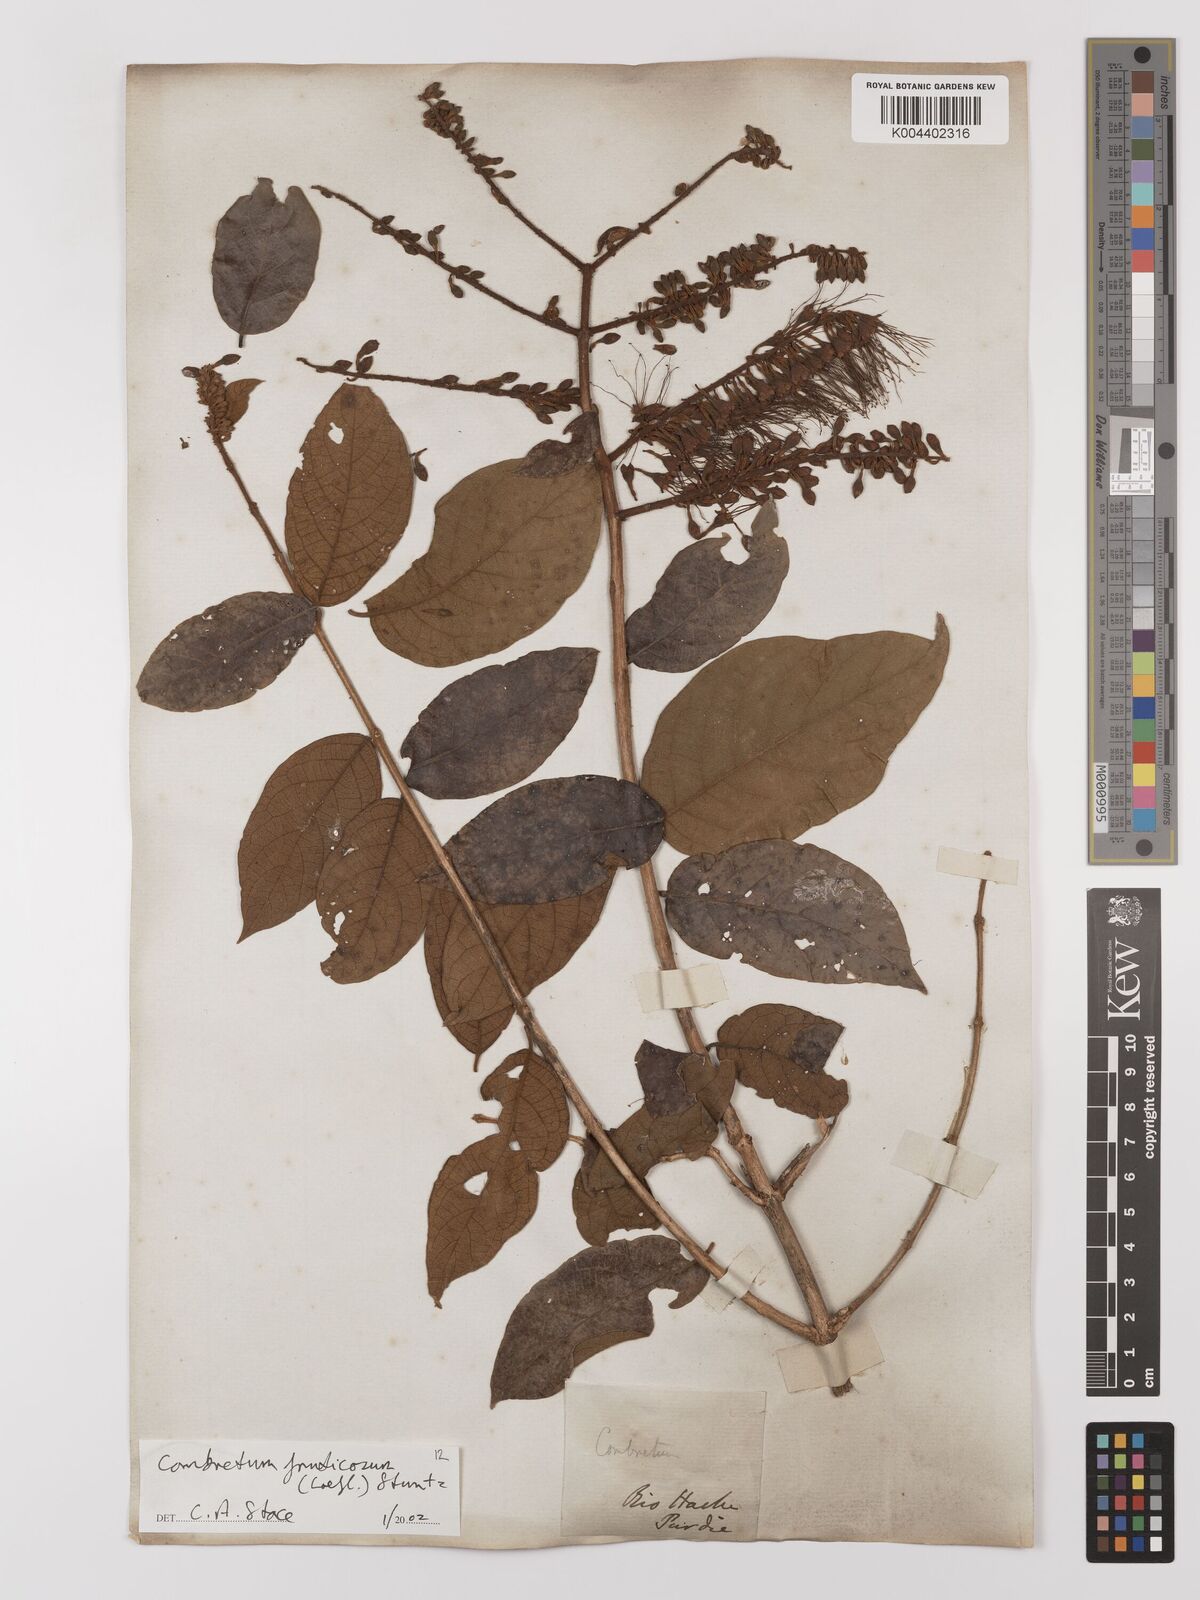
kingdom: Plantae
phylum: Tracheophyta
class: Magnoliopsida
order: Myrtales
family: Combretaceae
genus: Combretum
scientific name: Combretum fruticosum
